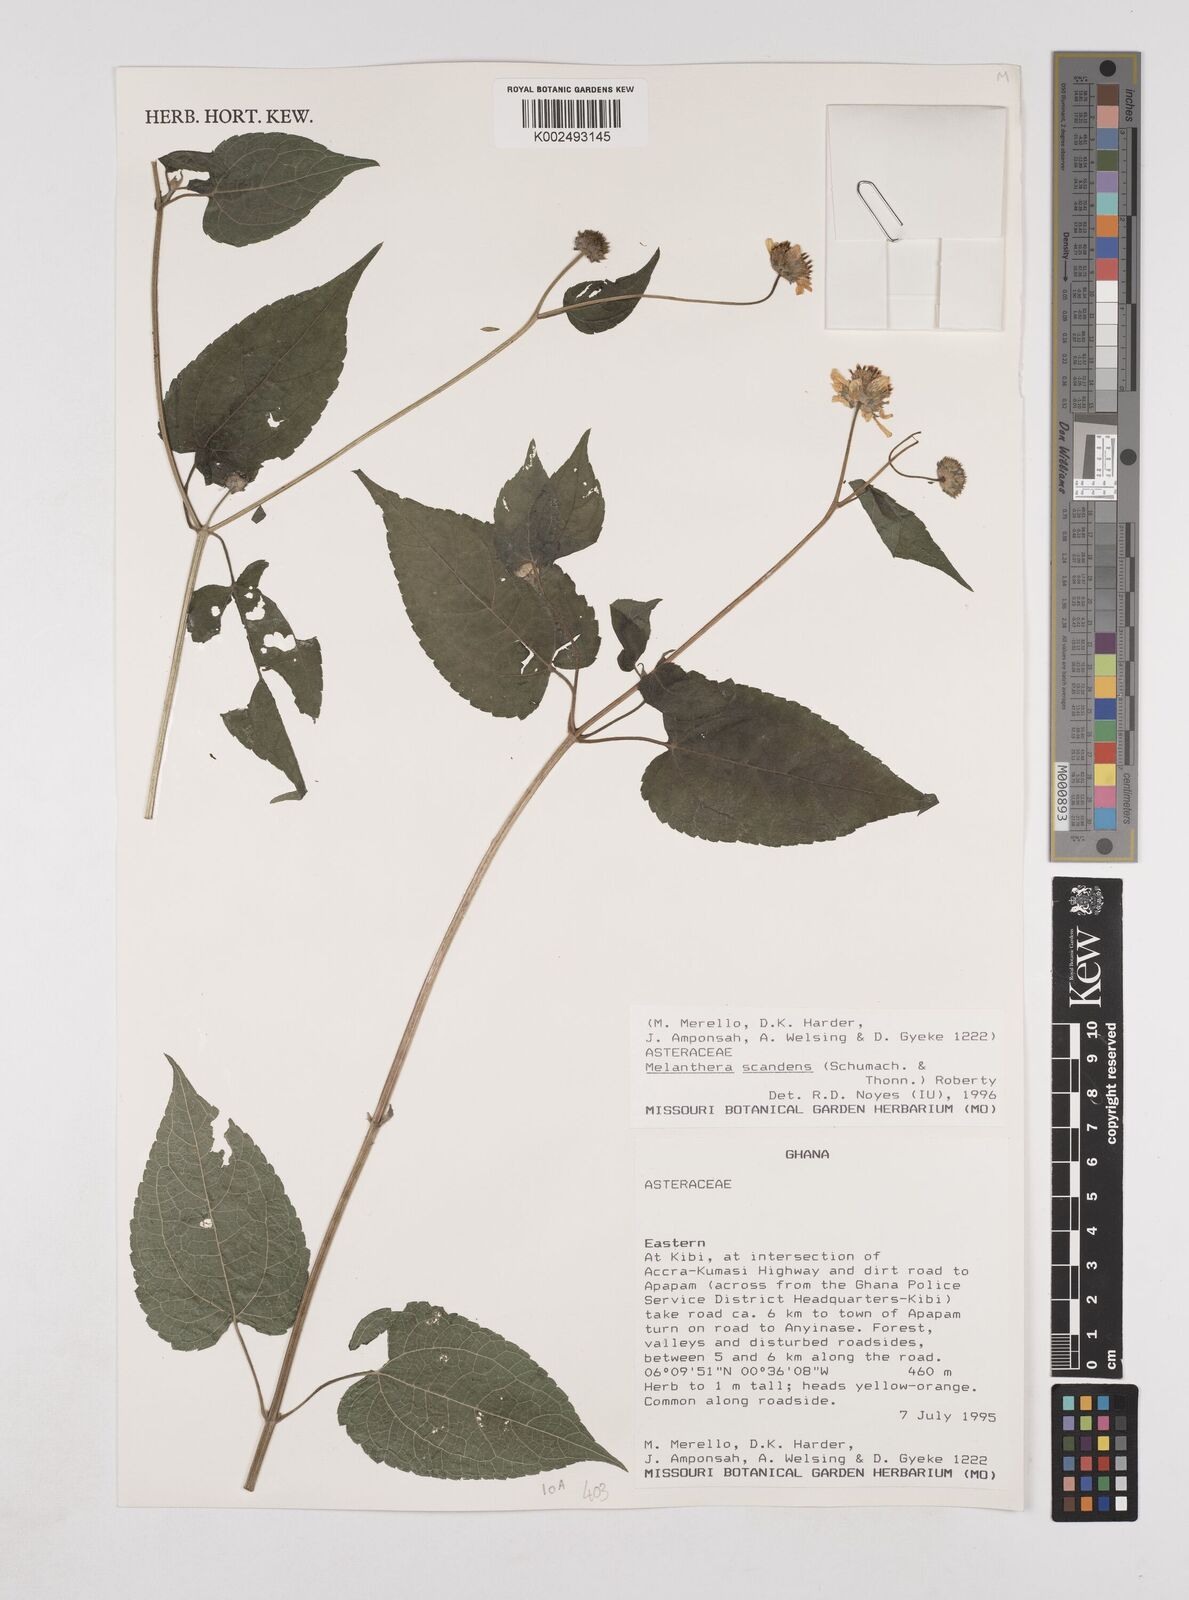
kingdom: Plantae
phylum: Tracheophyta
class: Magnoliopsida
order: Asterales
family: Asteraceae
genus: Lipotriche
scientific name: Lipotriche scandens
